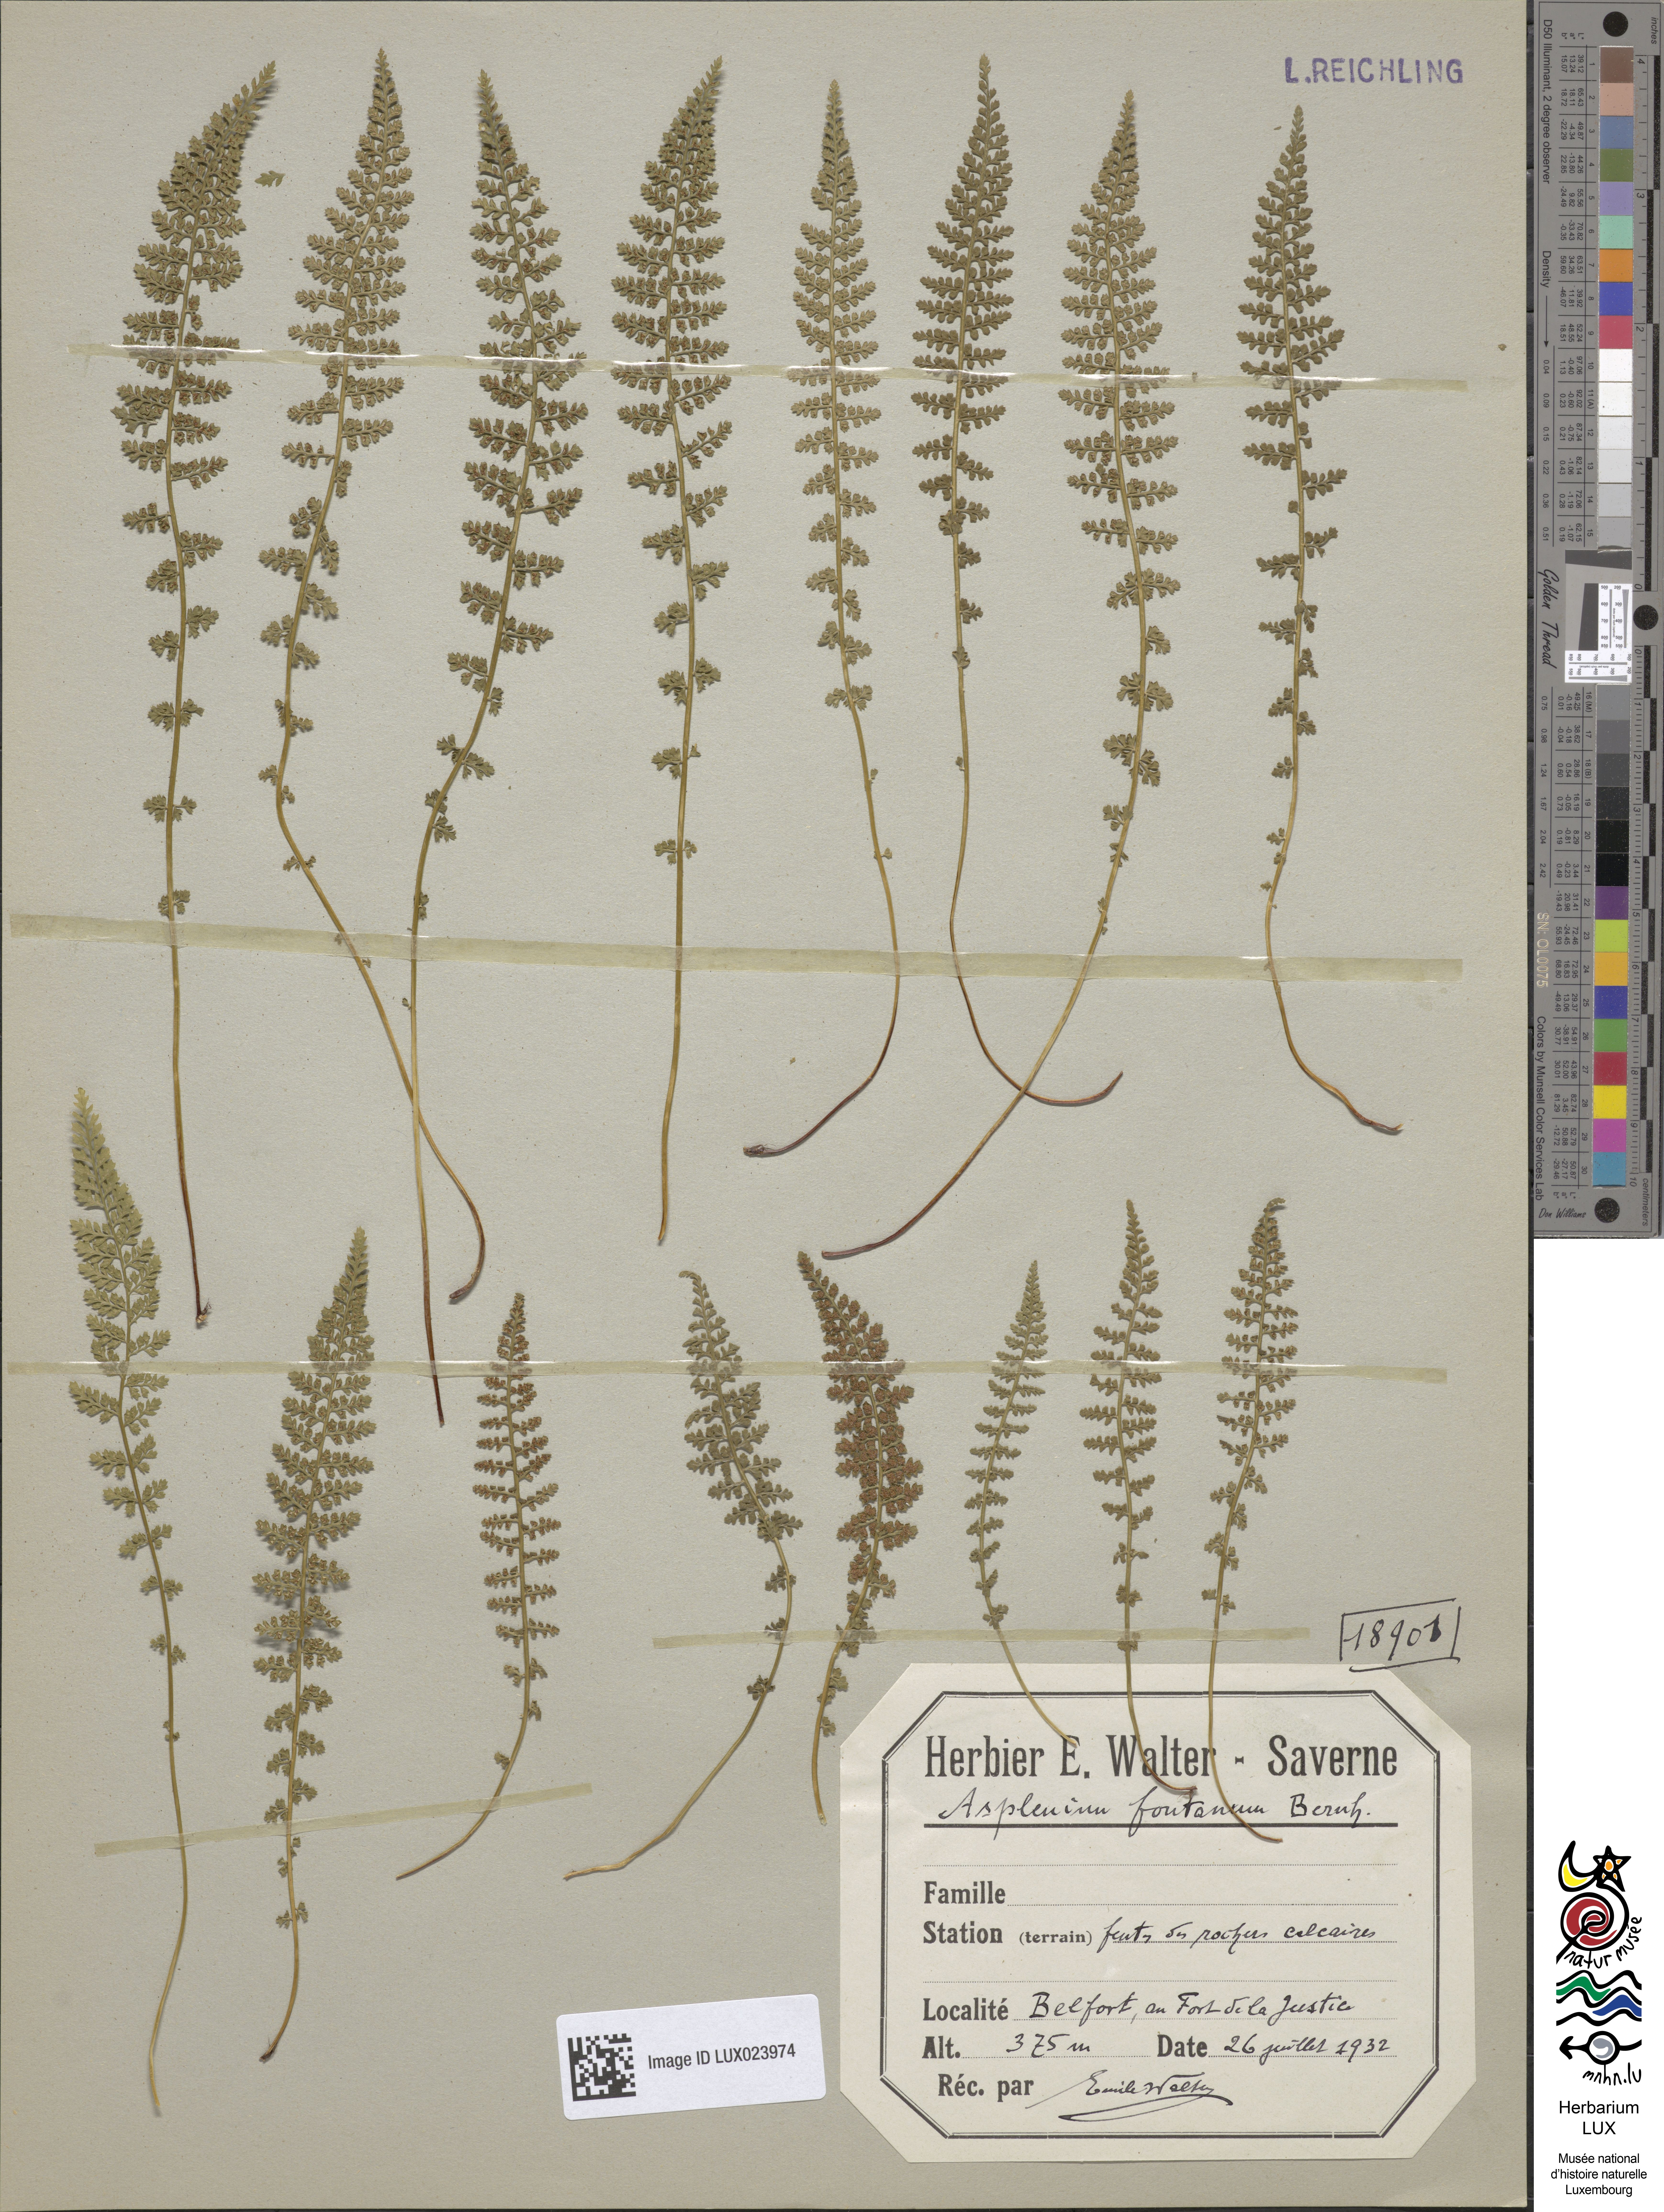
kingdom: Plantae
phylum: Tracheophyta
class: Polypodiopsida
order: Polypodiales
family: Aspleniaceae
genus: Asplenium
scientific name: Asplenium fontanum
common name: Fountain spleenwort
